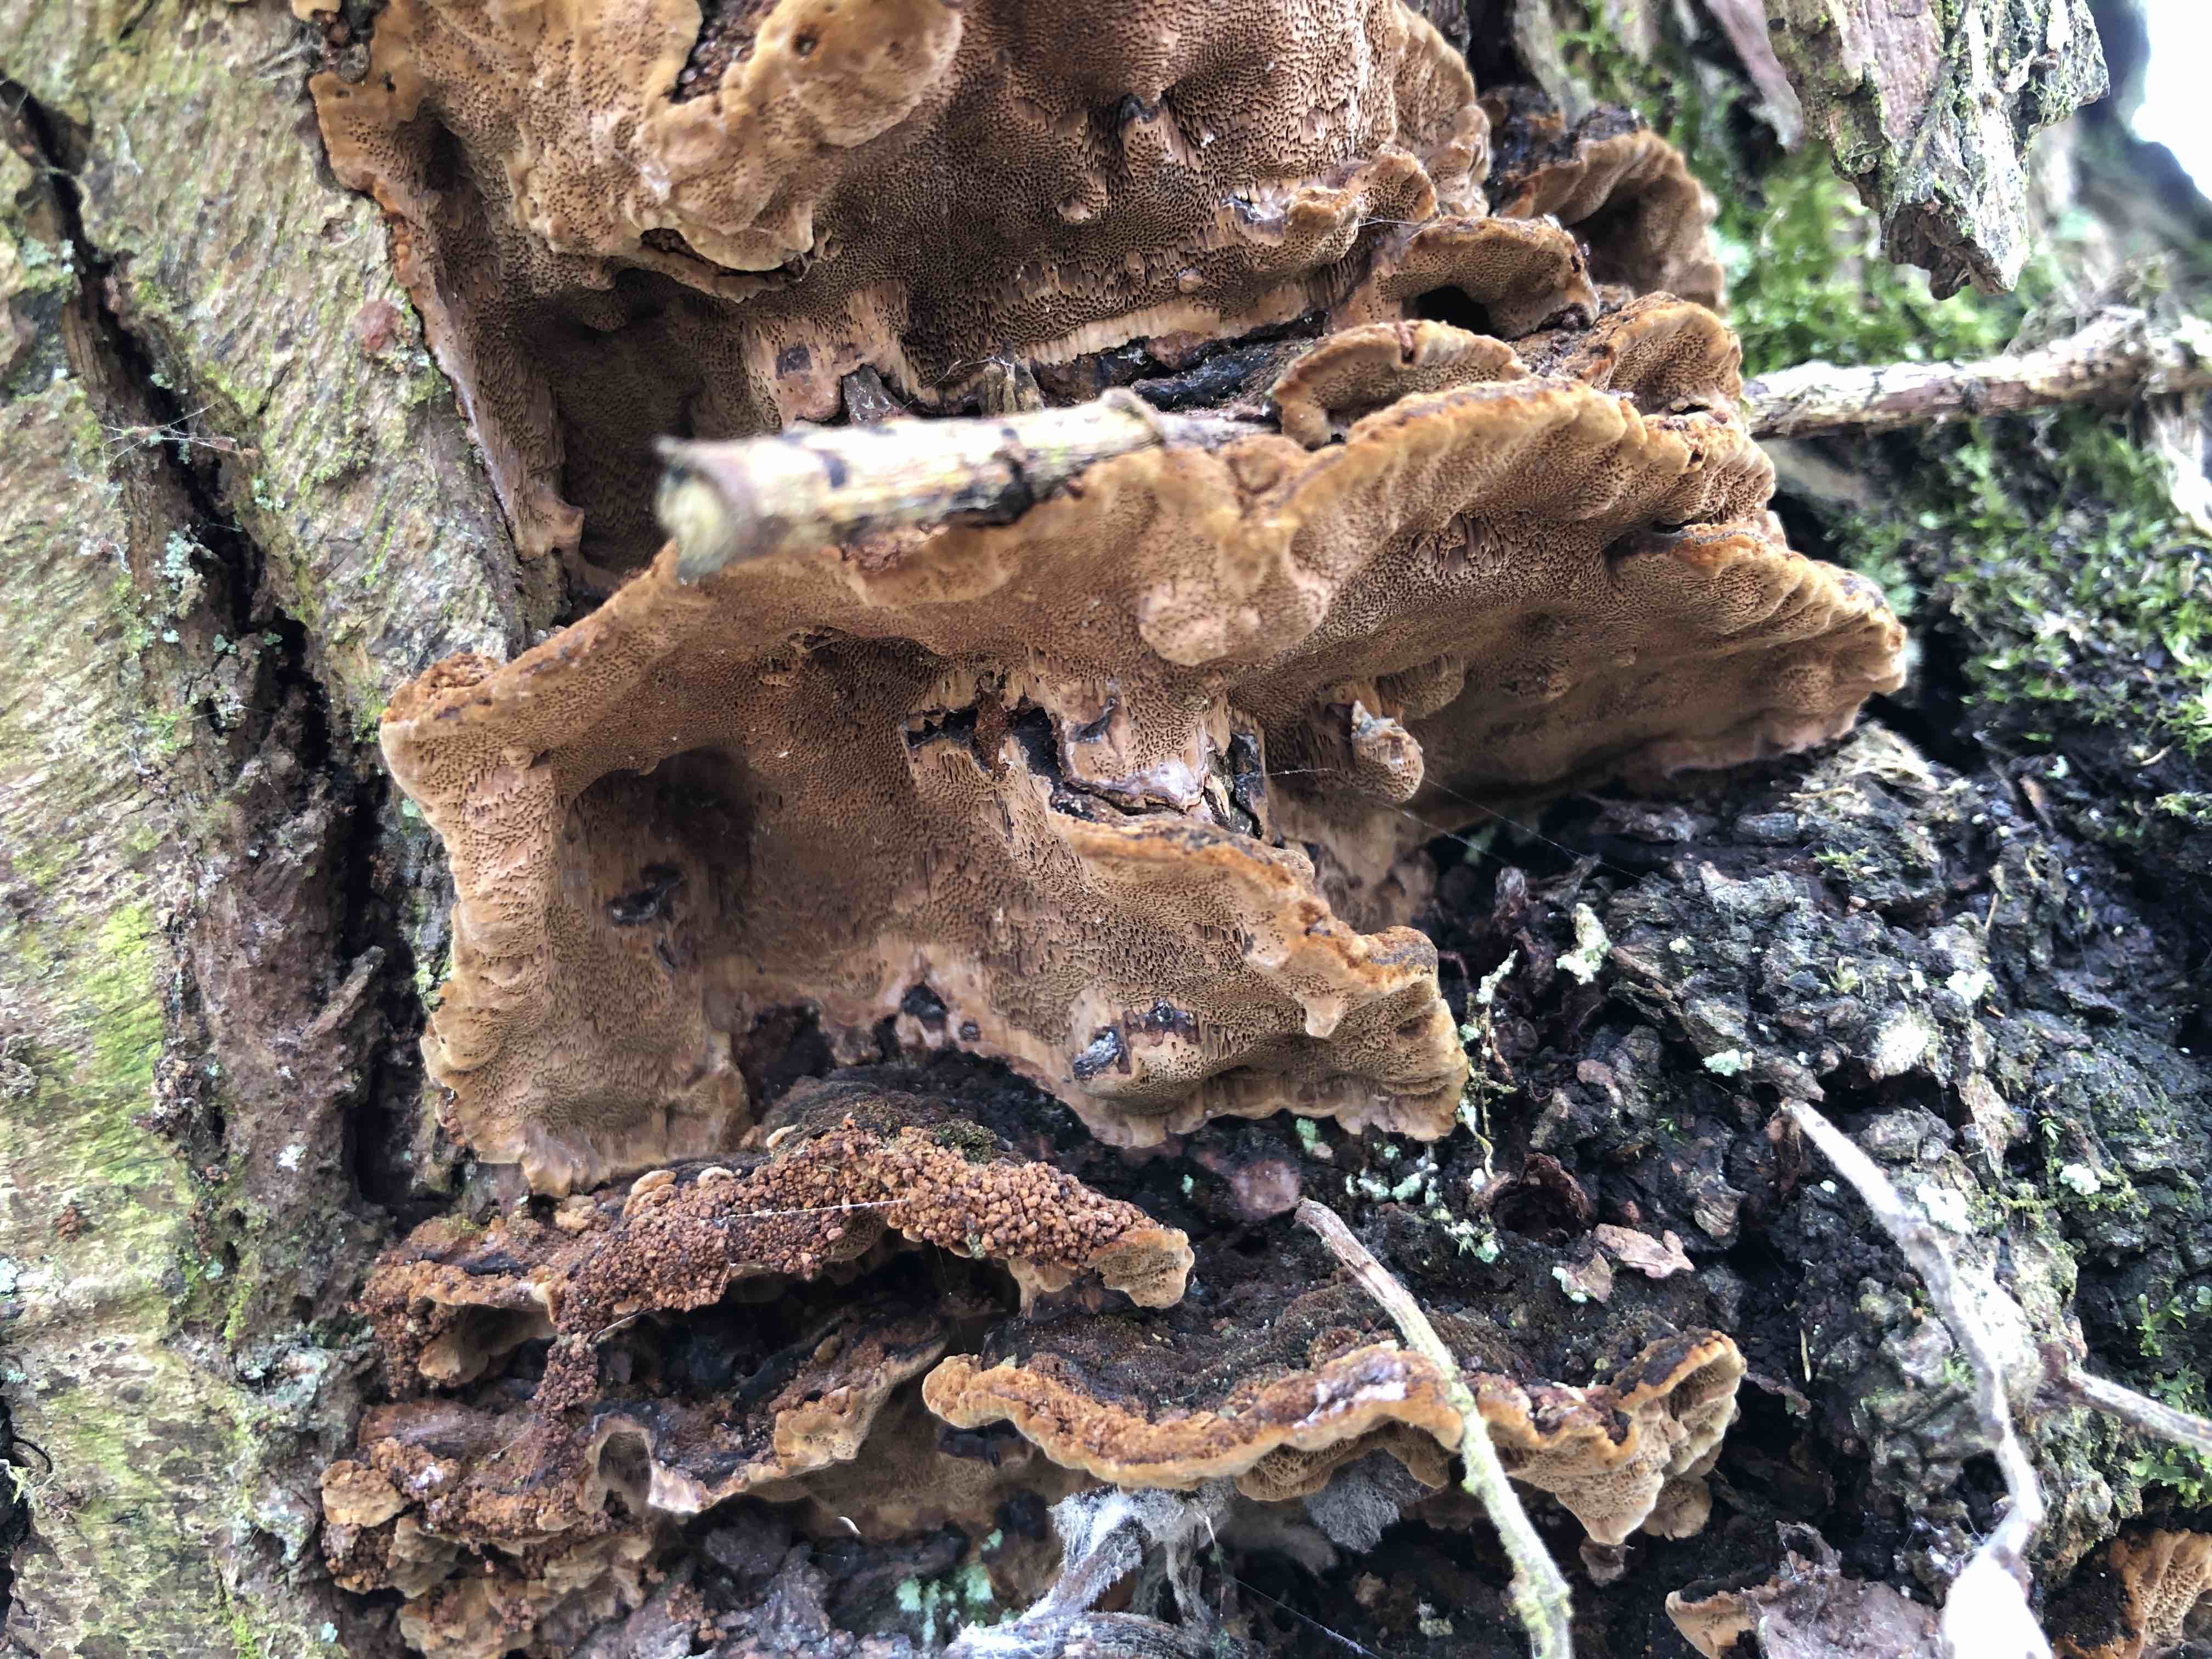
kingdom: Fungi
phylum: Basidiomycota
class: Agaricomycetes
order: Hymenochaetales
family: Hymenochaetaceae
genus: Phellinopsis
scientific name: Phellinopsis conchata
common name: pile-ildporesvamp
